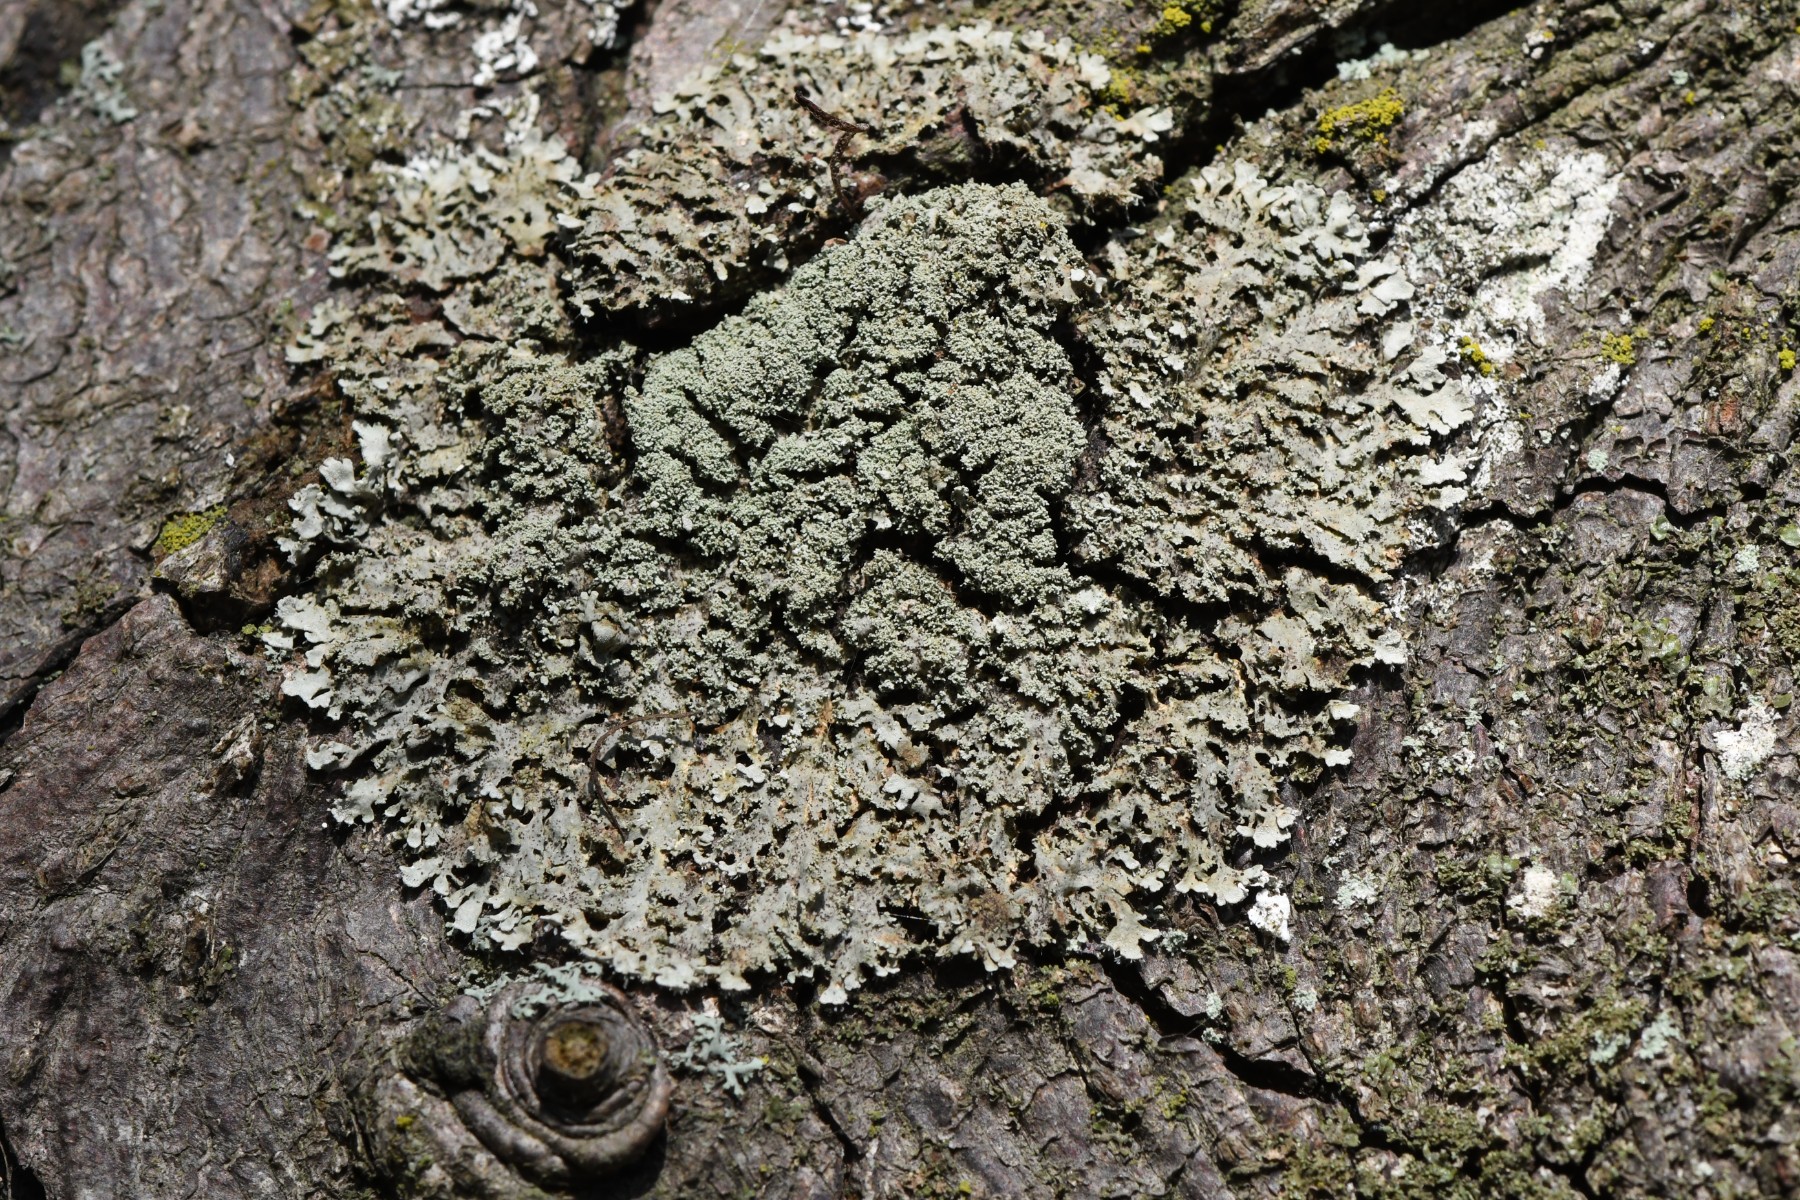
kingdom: Fungi
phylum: Ascomycota
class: Lecanoromycetes
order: Caliciales
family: Physciaceae
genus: Physconia
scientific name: Physconia
